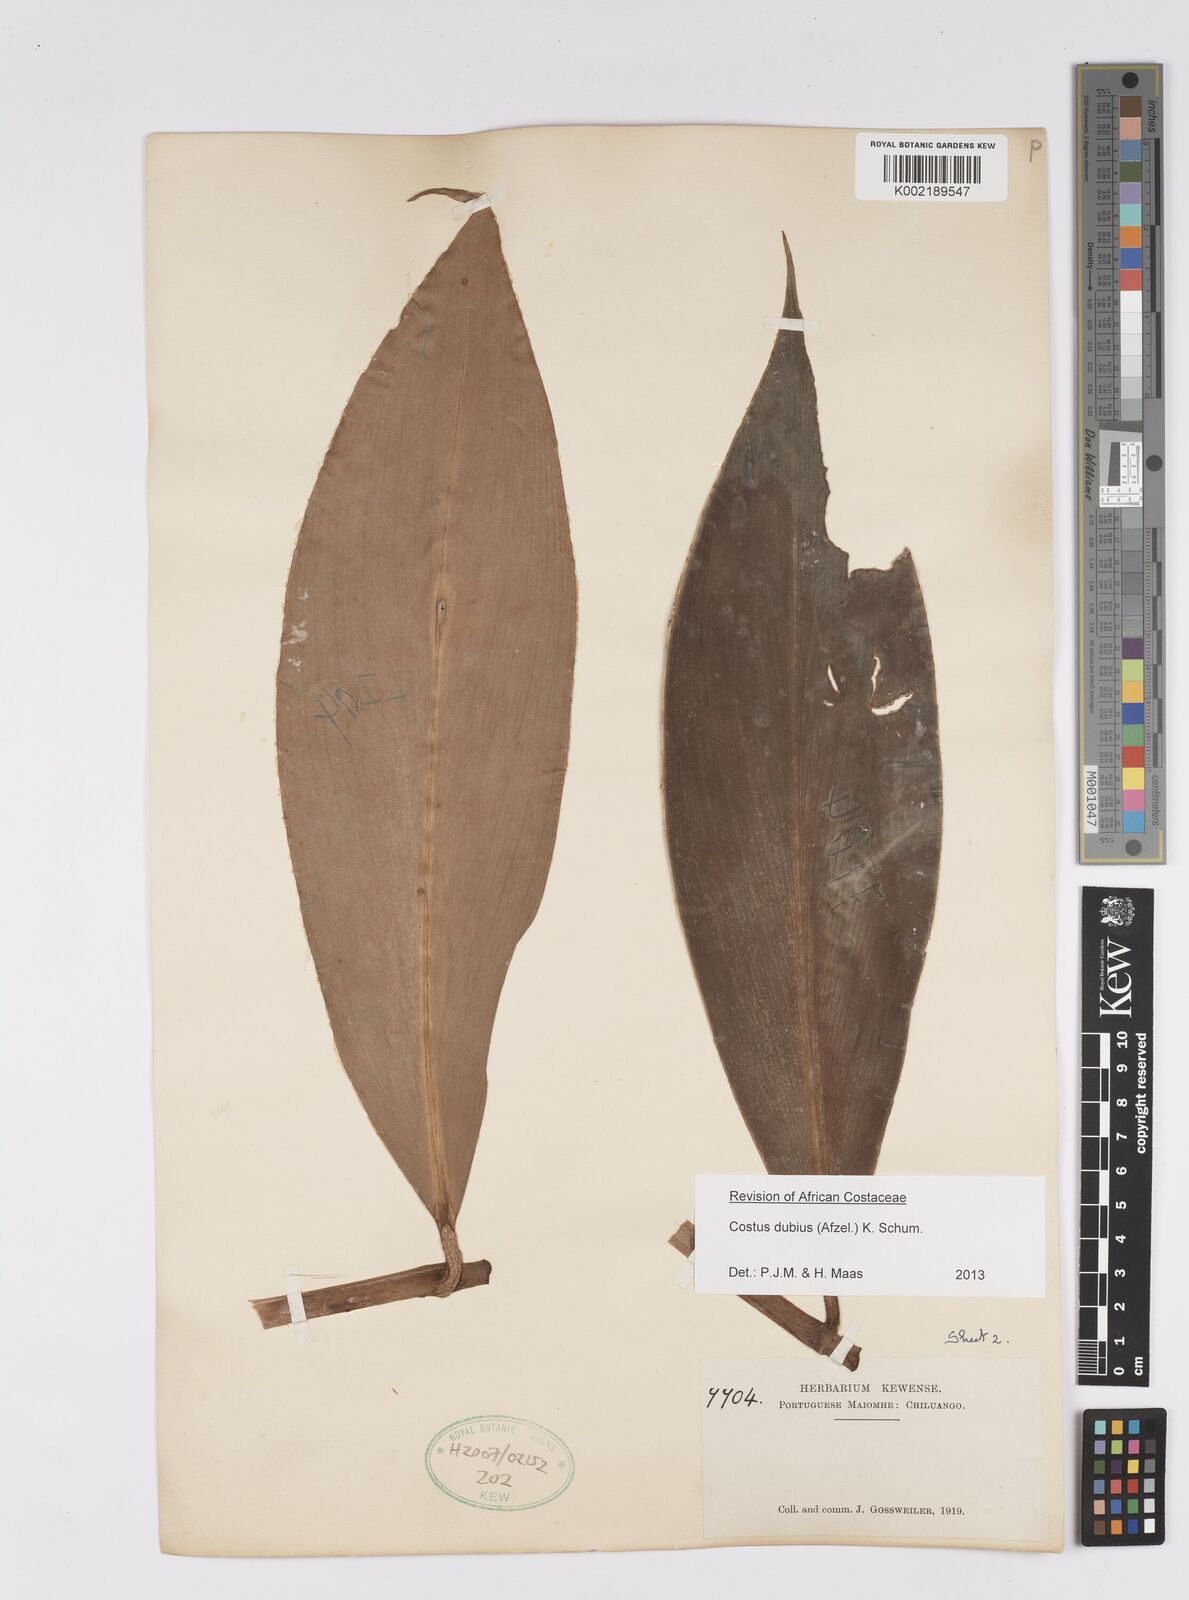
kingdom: Plantae
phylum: Tracheophyta
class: Liliopsida
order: Zingiberales
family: Costaceae
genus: Costus
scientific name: Costus dubius
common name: Costus
